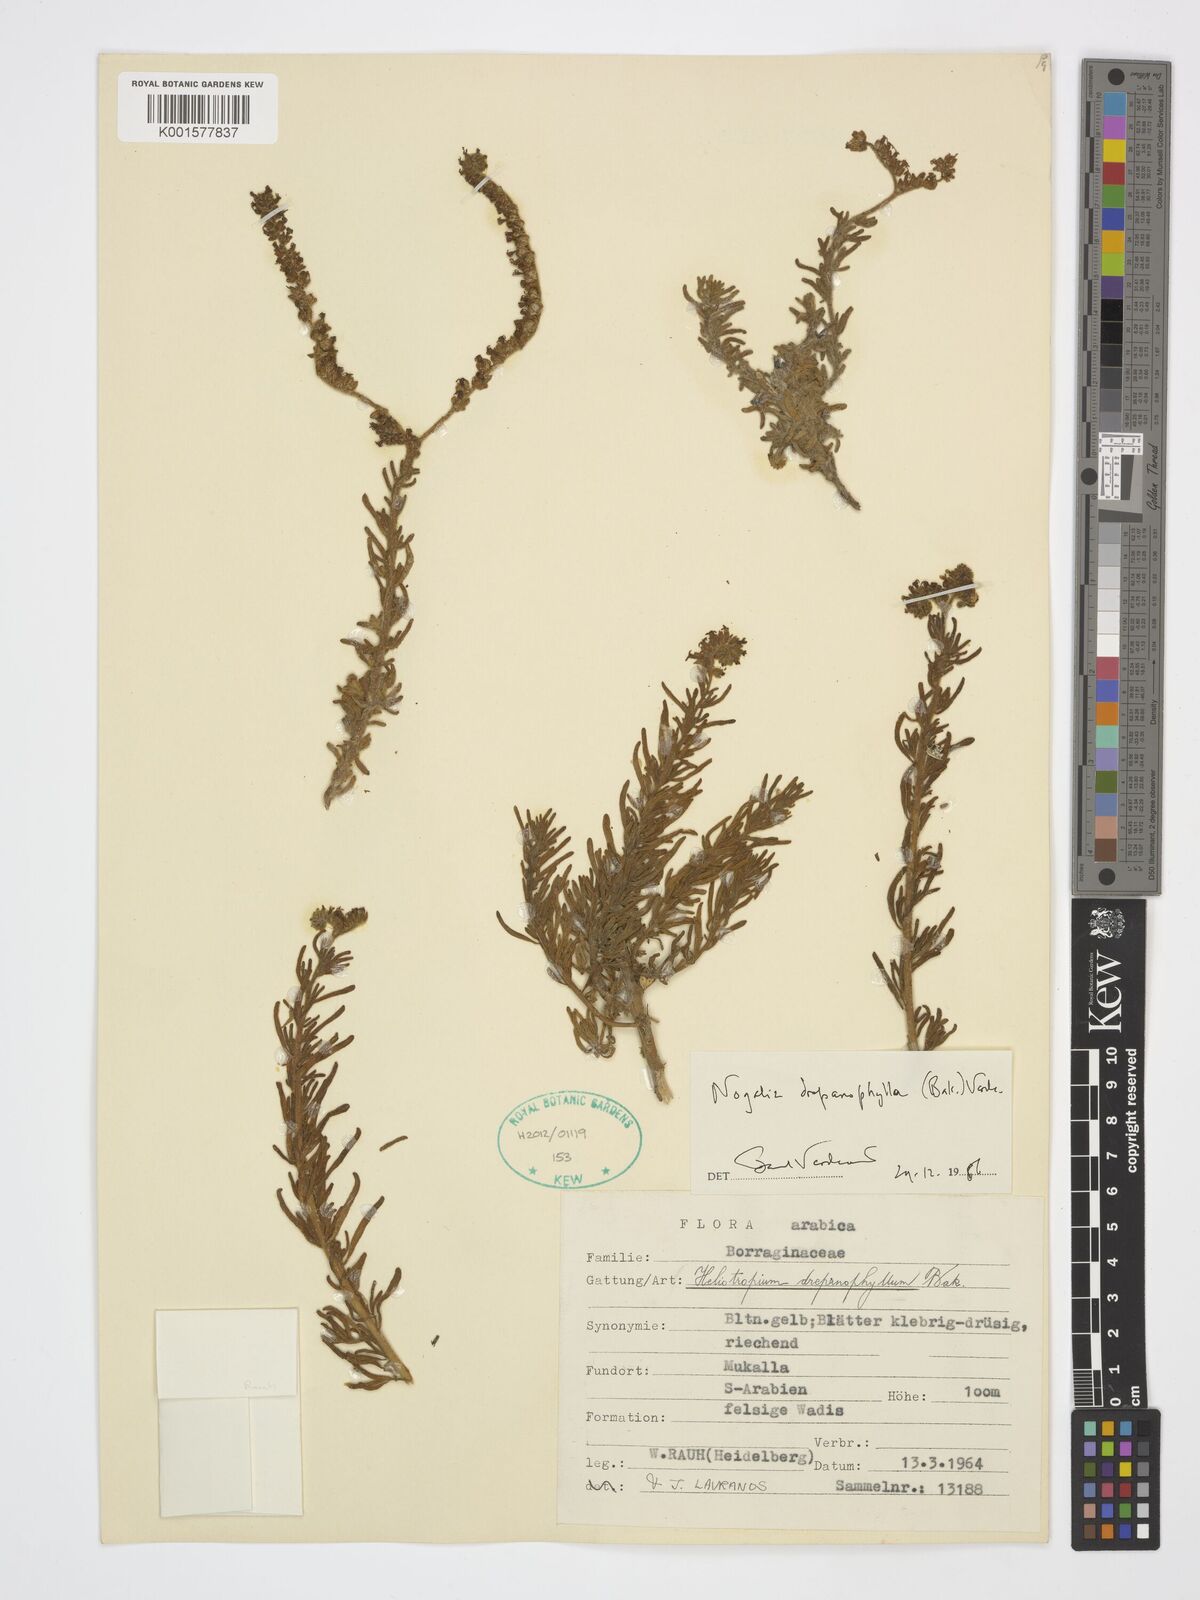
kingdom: Plantae
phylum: Tracheophyta
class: Magnoliopsida
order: Boraginales
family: Heliotropiaceae
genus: Heliotropium
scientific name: Heliotropium drepanophyllum
